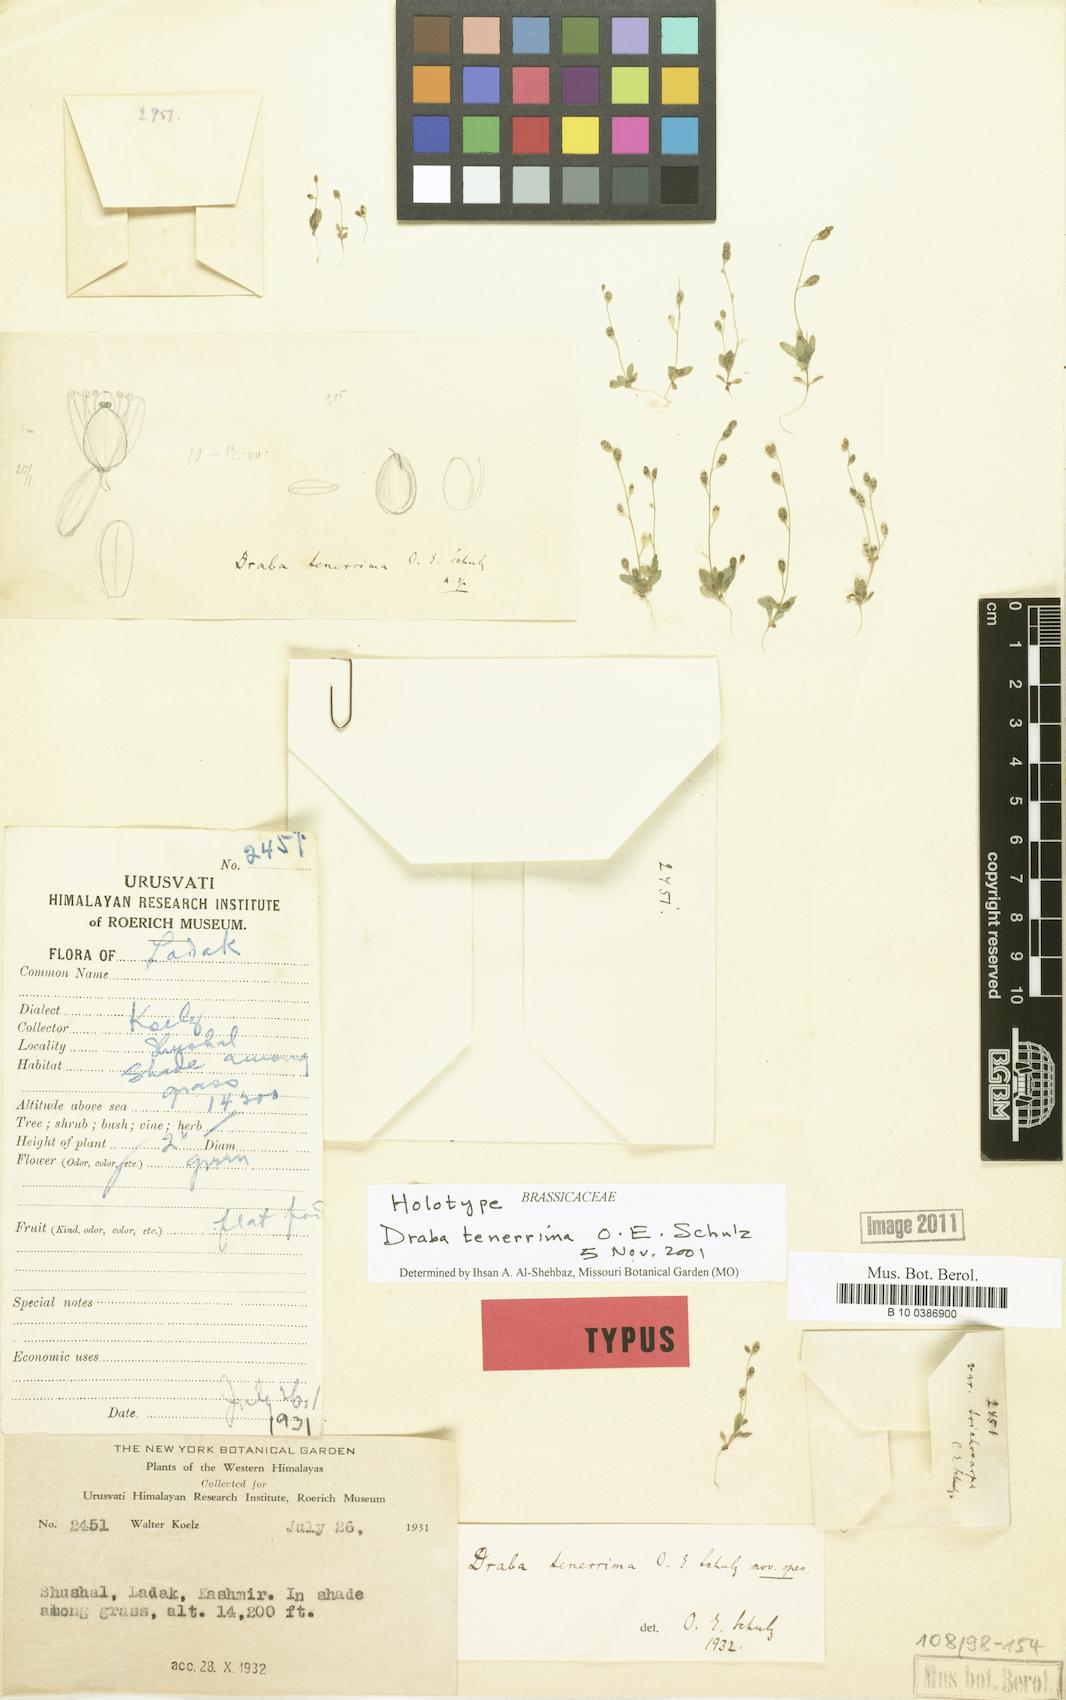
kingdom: Plantae
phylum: Tracheophyta
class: Magnoliopsida
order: Brassicales
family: Brassicaceae
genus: Draba
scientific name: Draba tenerrima
